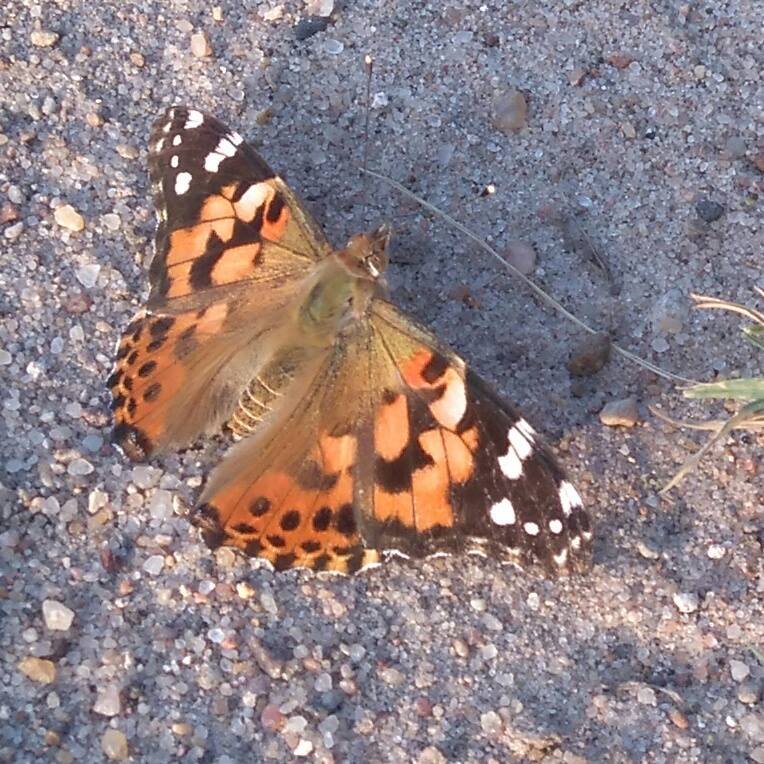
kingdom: Animalia
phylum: Arthropoda
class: Insecta
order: Lepidoptera
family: Nymphalidae
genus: Vanessa
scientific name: Vanessa cardui
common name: Painted Lady
